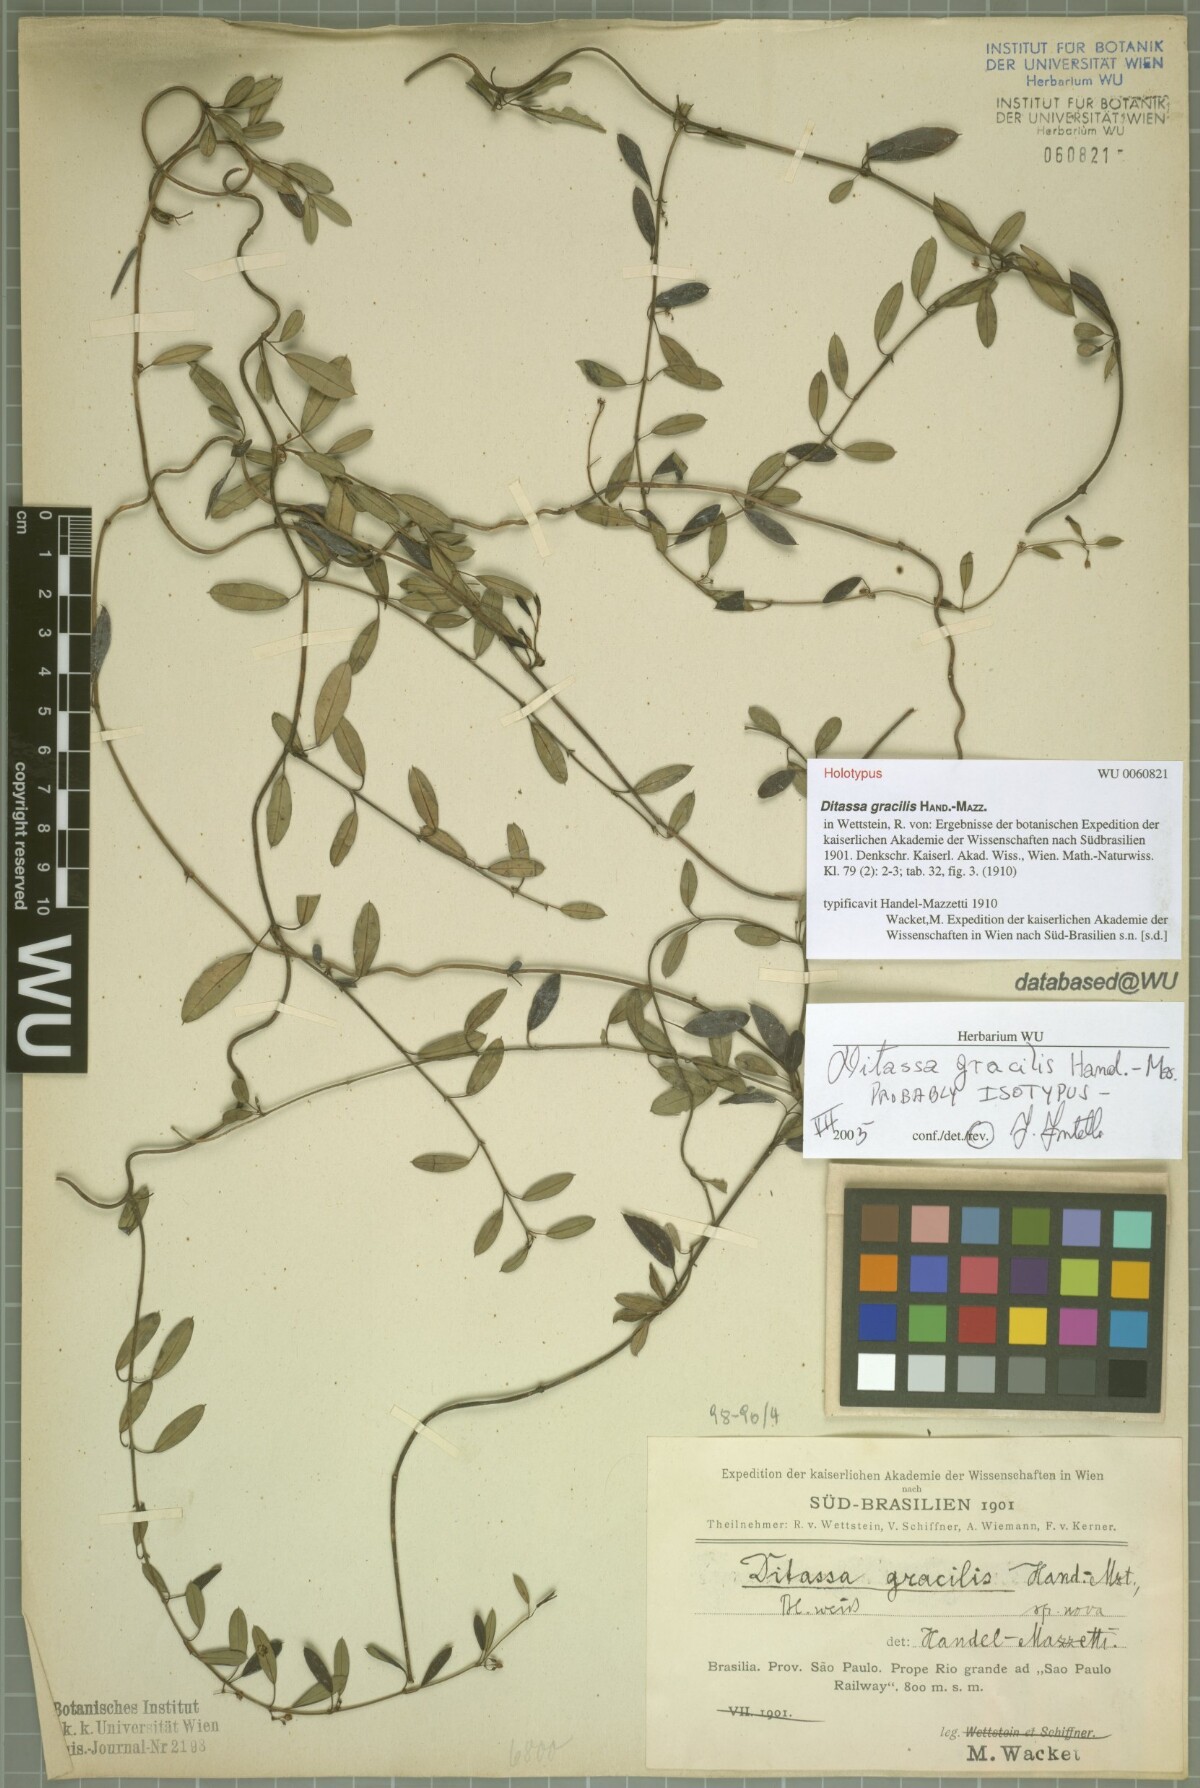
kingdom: Plantae
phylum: Tracheophyta
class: Magnoliopsida
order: Gentianales
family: Apocynaceae
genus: Ditassa
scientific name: Ditassa gracilis
